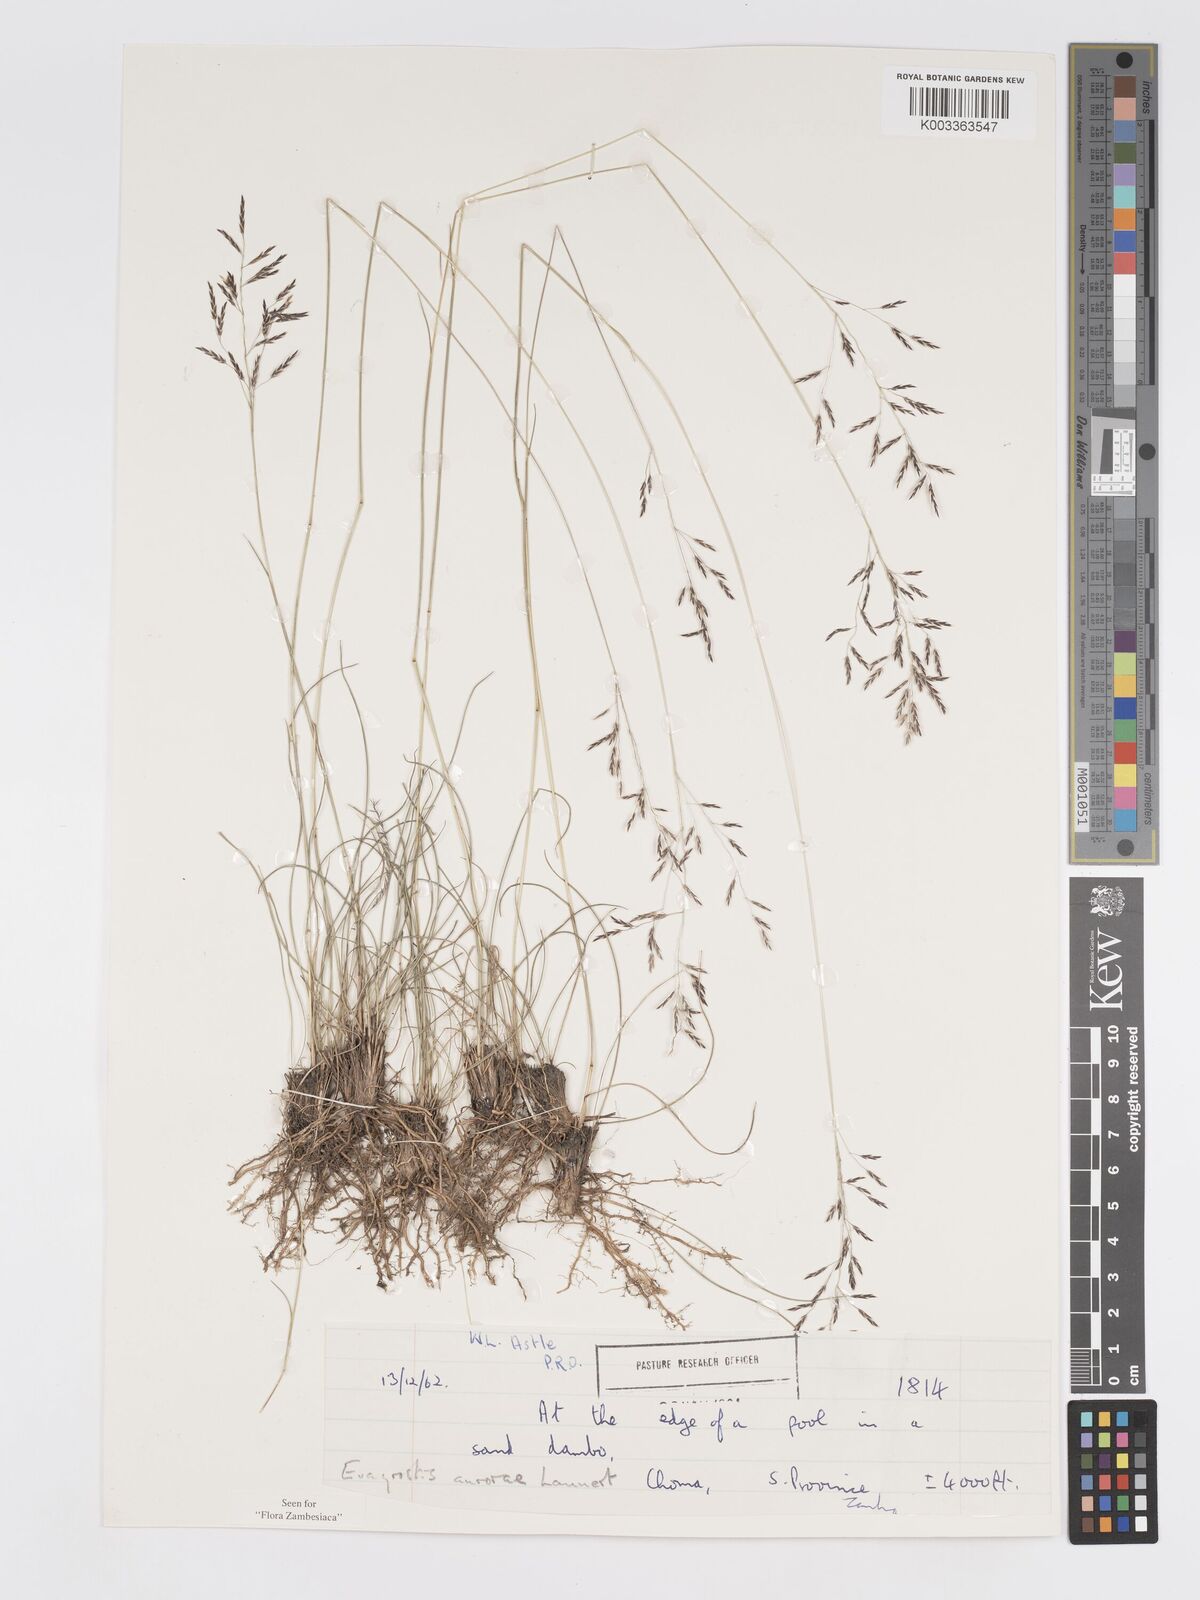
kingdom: Plantae
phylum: Tracheophyta
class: Liliopsida
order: Poales
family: Poaceae
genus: Eragrostis
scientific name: Eragrostis aurorae
